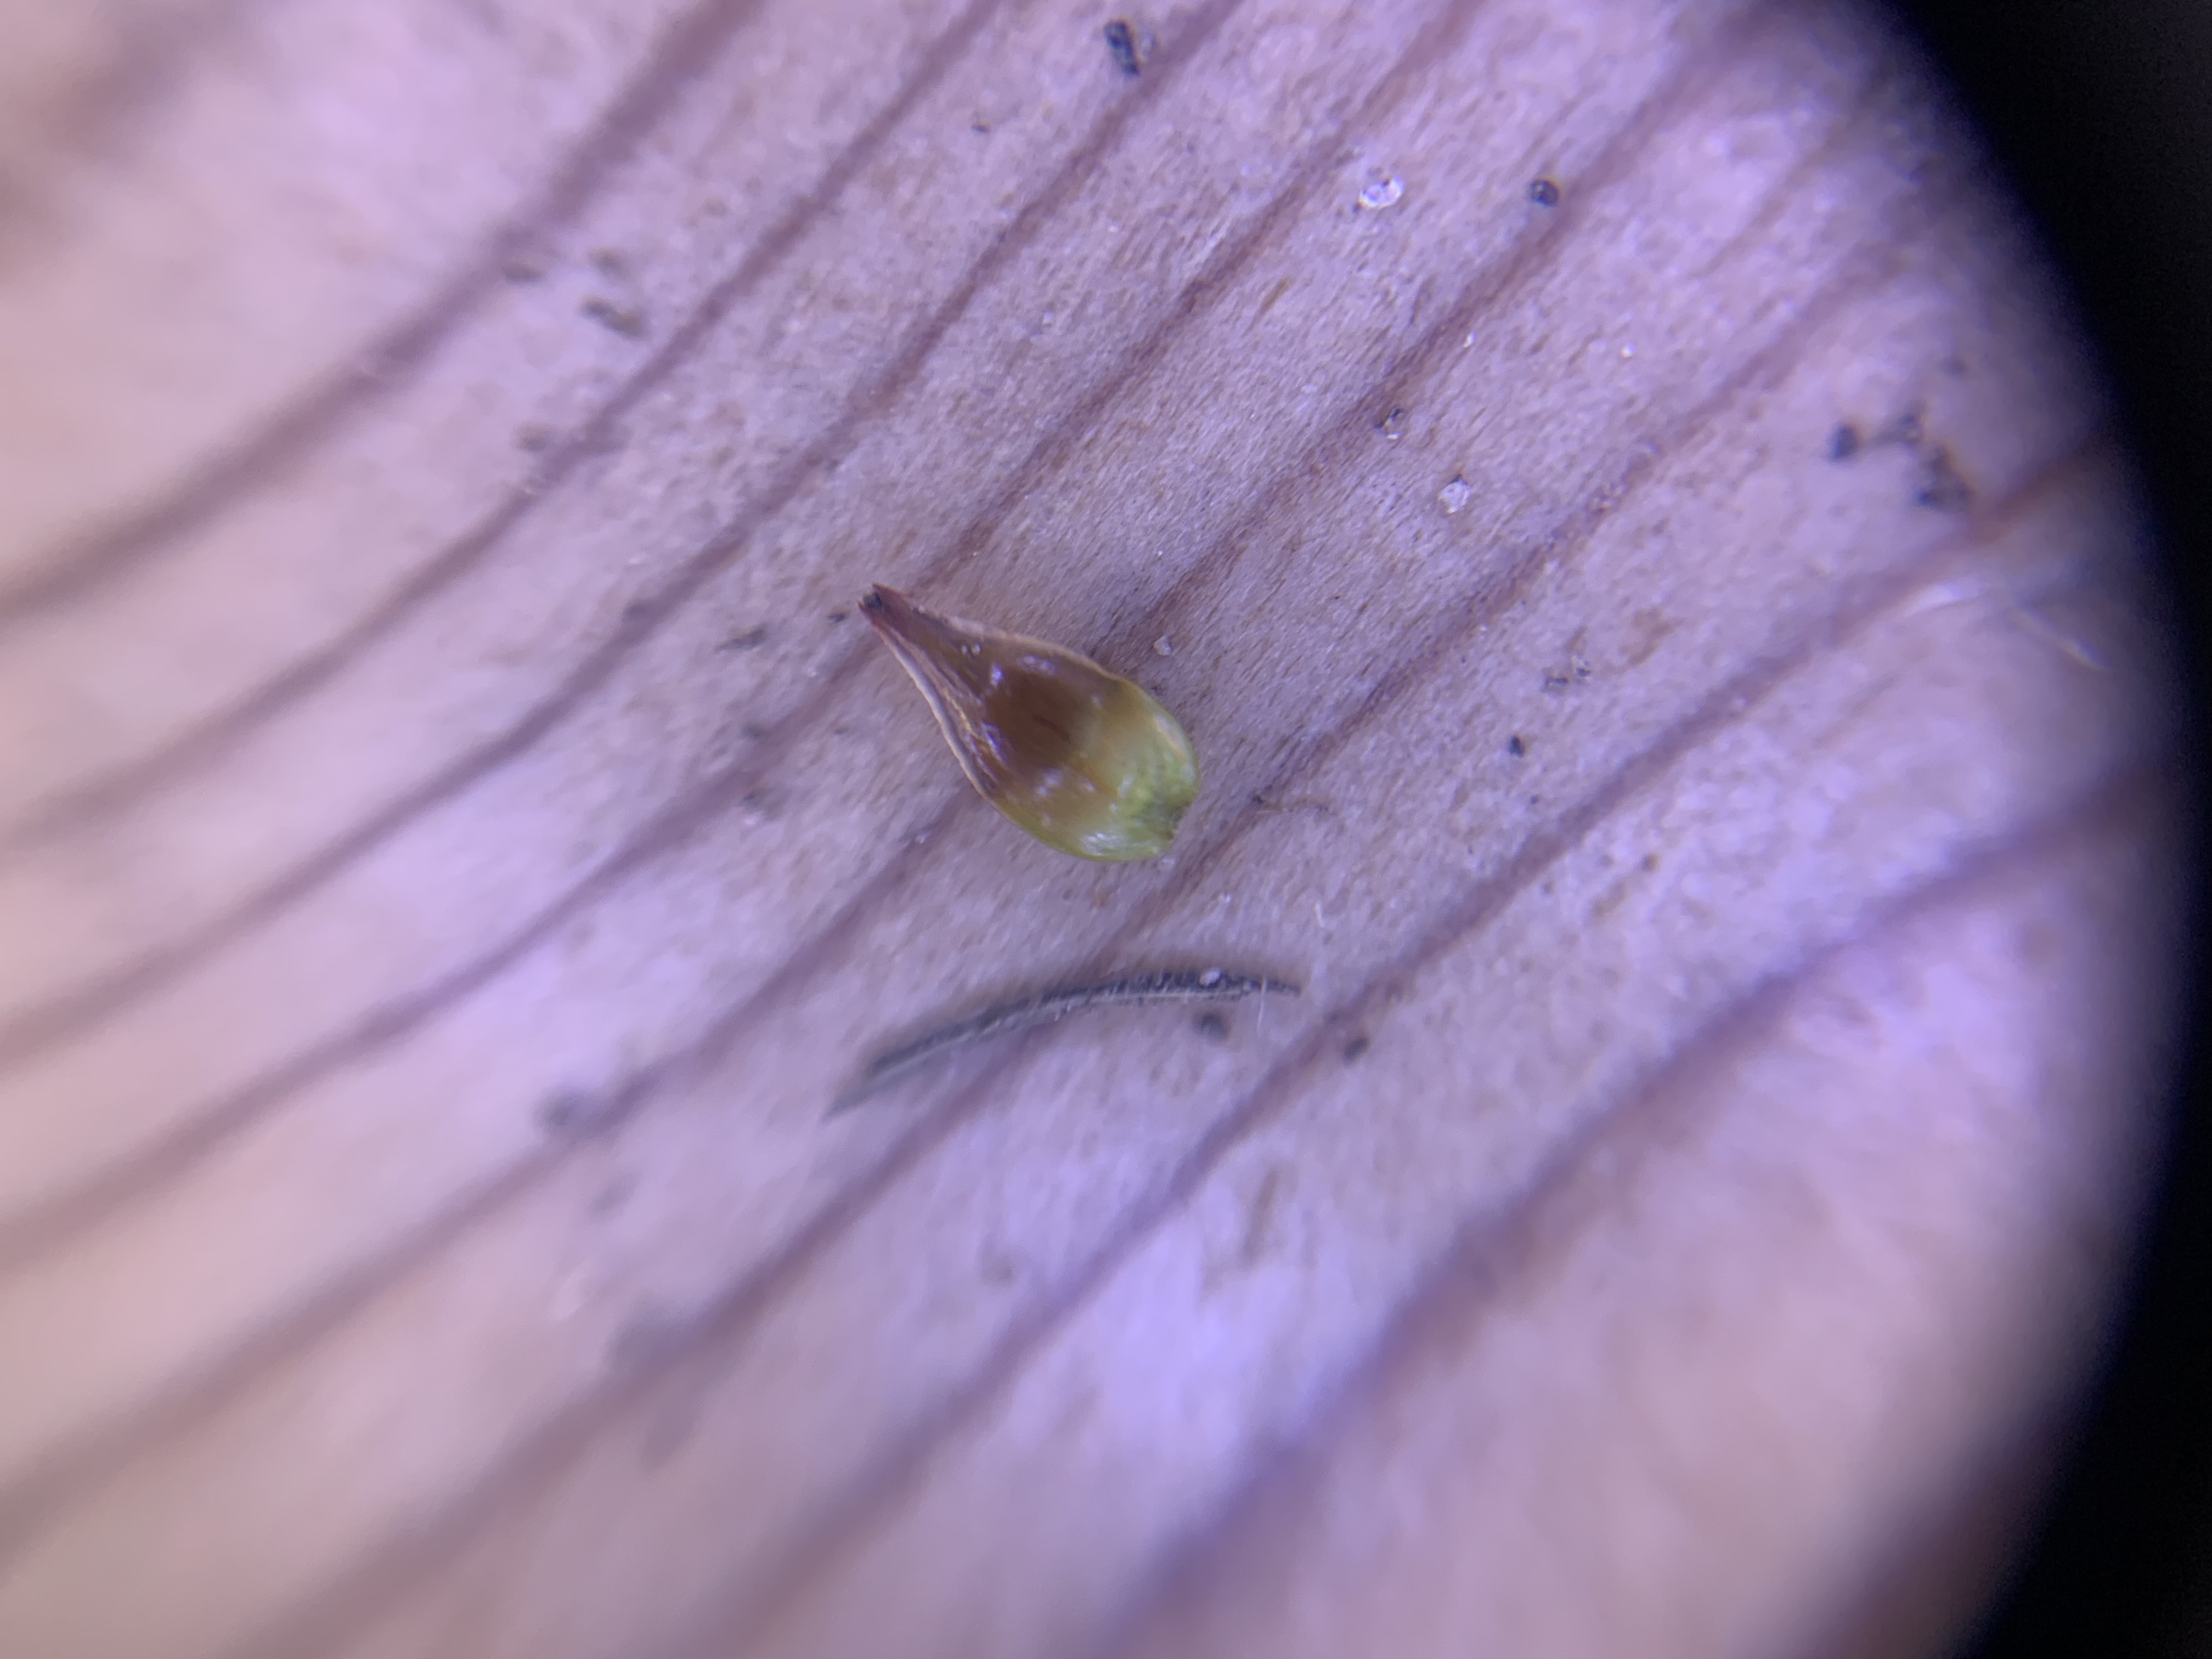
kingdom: Plantae
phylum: Tracheophyta
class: Liliopsida
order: Poales
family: Cyperaceae
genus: Carex
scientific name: Carex spicata
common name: Spidskapslet star
